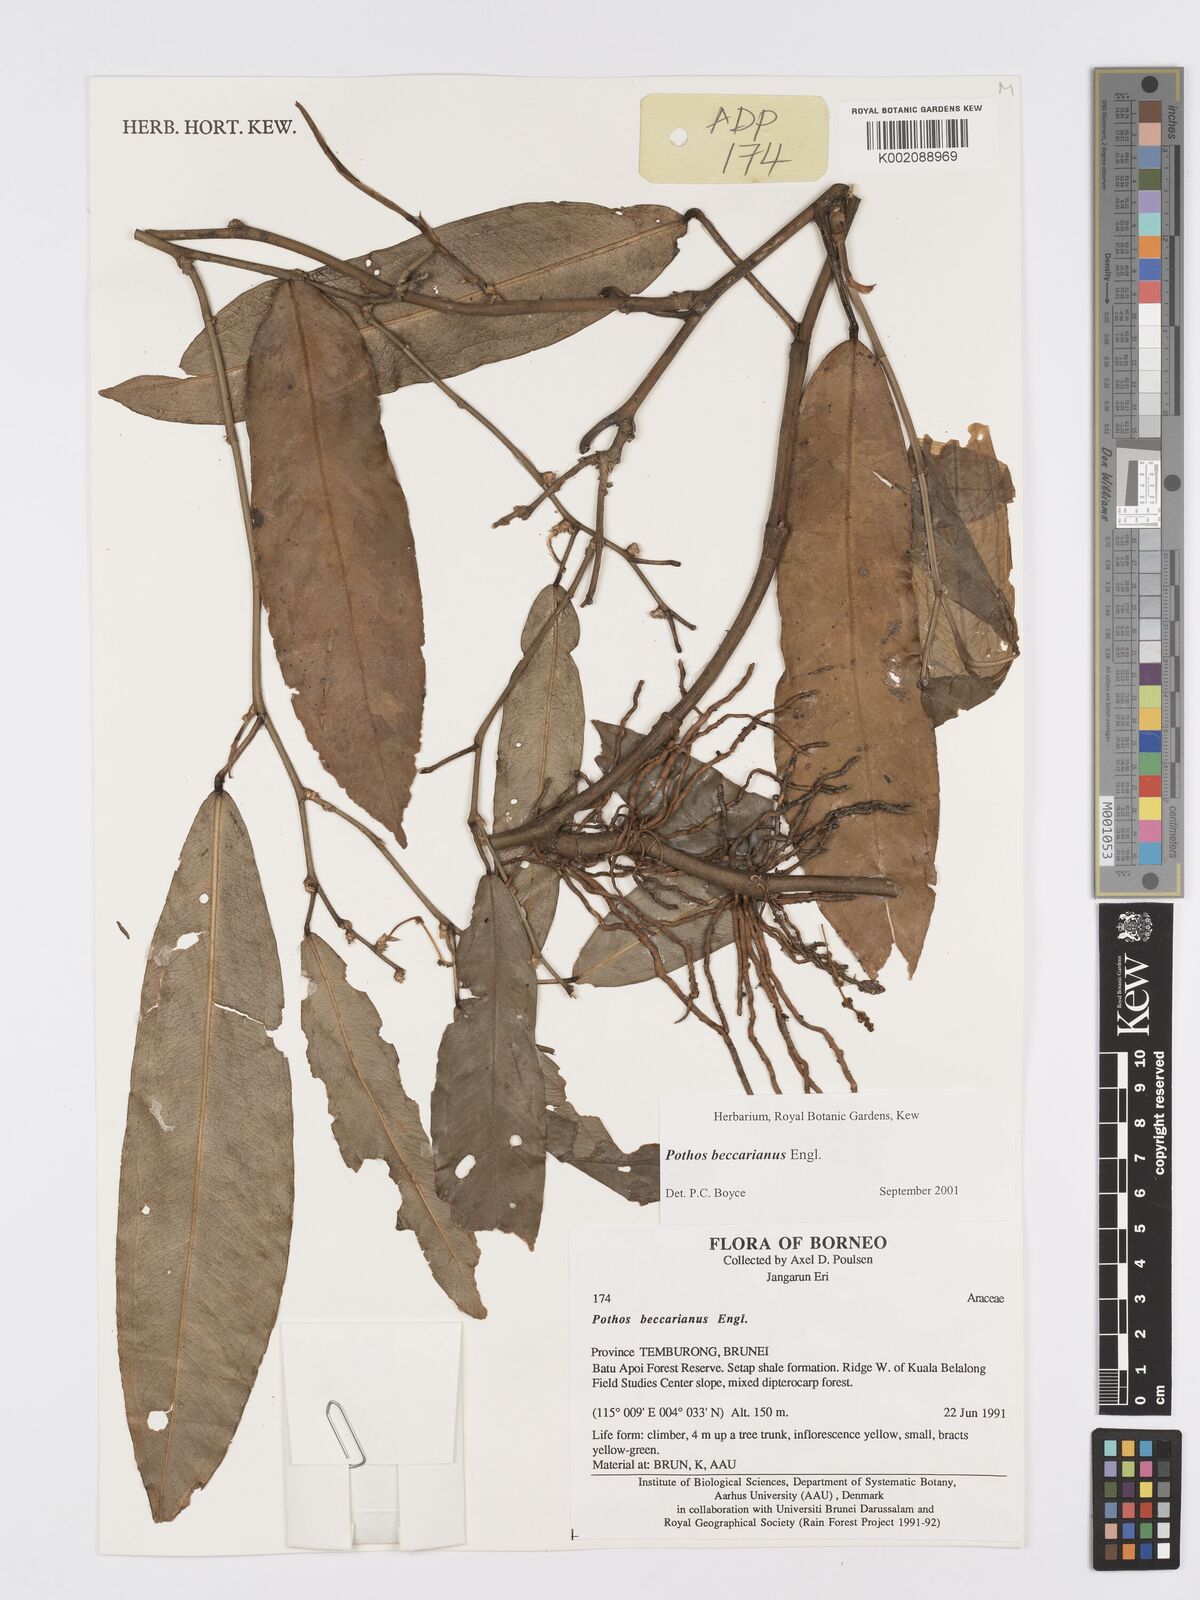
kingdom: Plantae
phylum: Tracheophyta
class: Liliopsida
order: Alismatales
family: Araceae
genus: Pothos
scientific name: Pothos beccarianus
